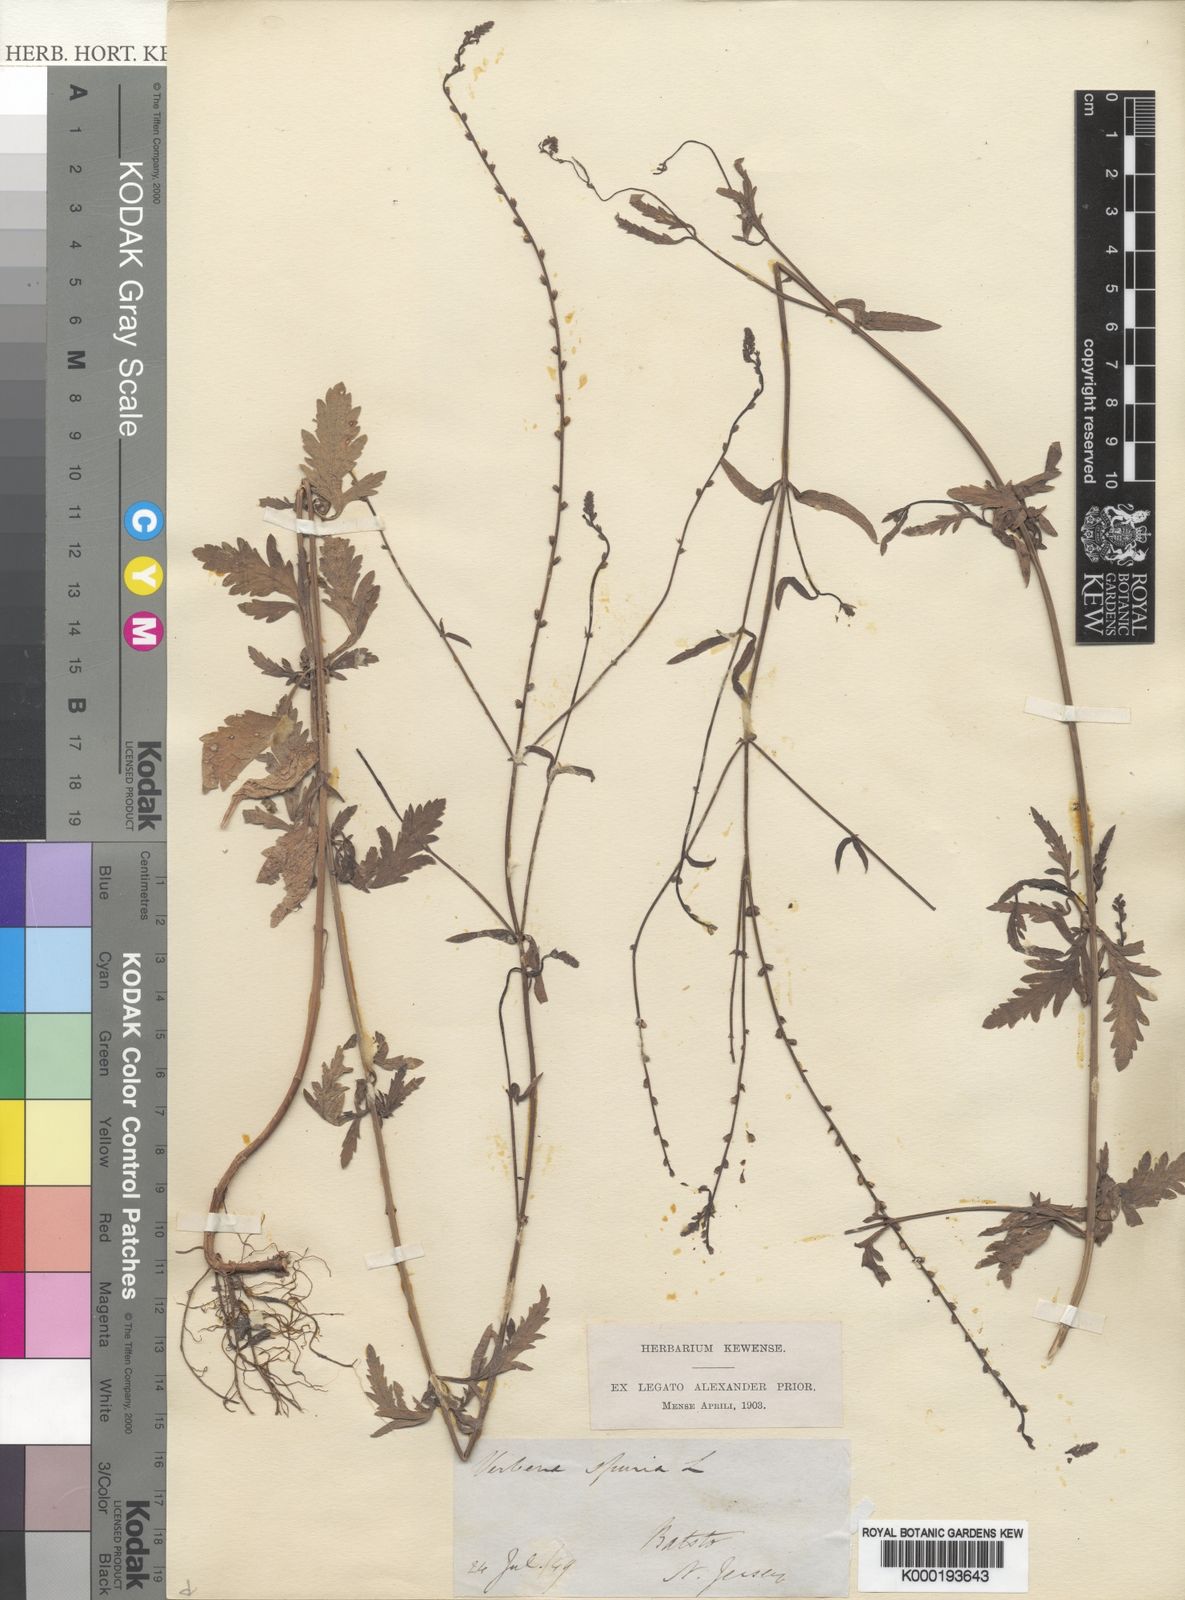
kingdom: Plantae
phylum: Tracheophyta
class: Magnoliopsida
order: Lamiales
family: Verbenaceae
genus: Verbena
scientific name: Verbena officinalis
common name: Vervain
